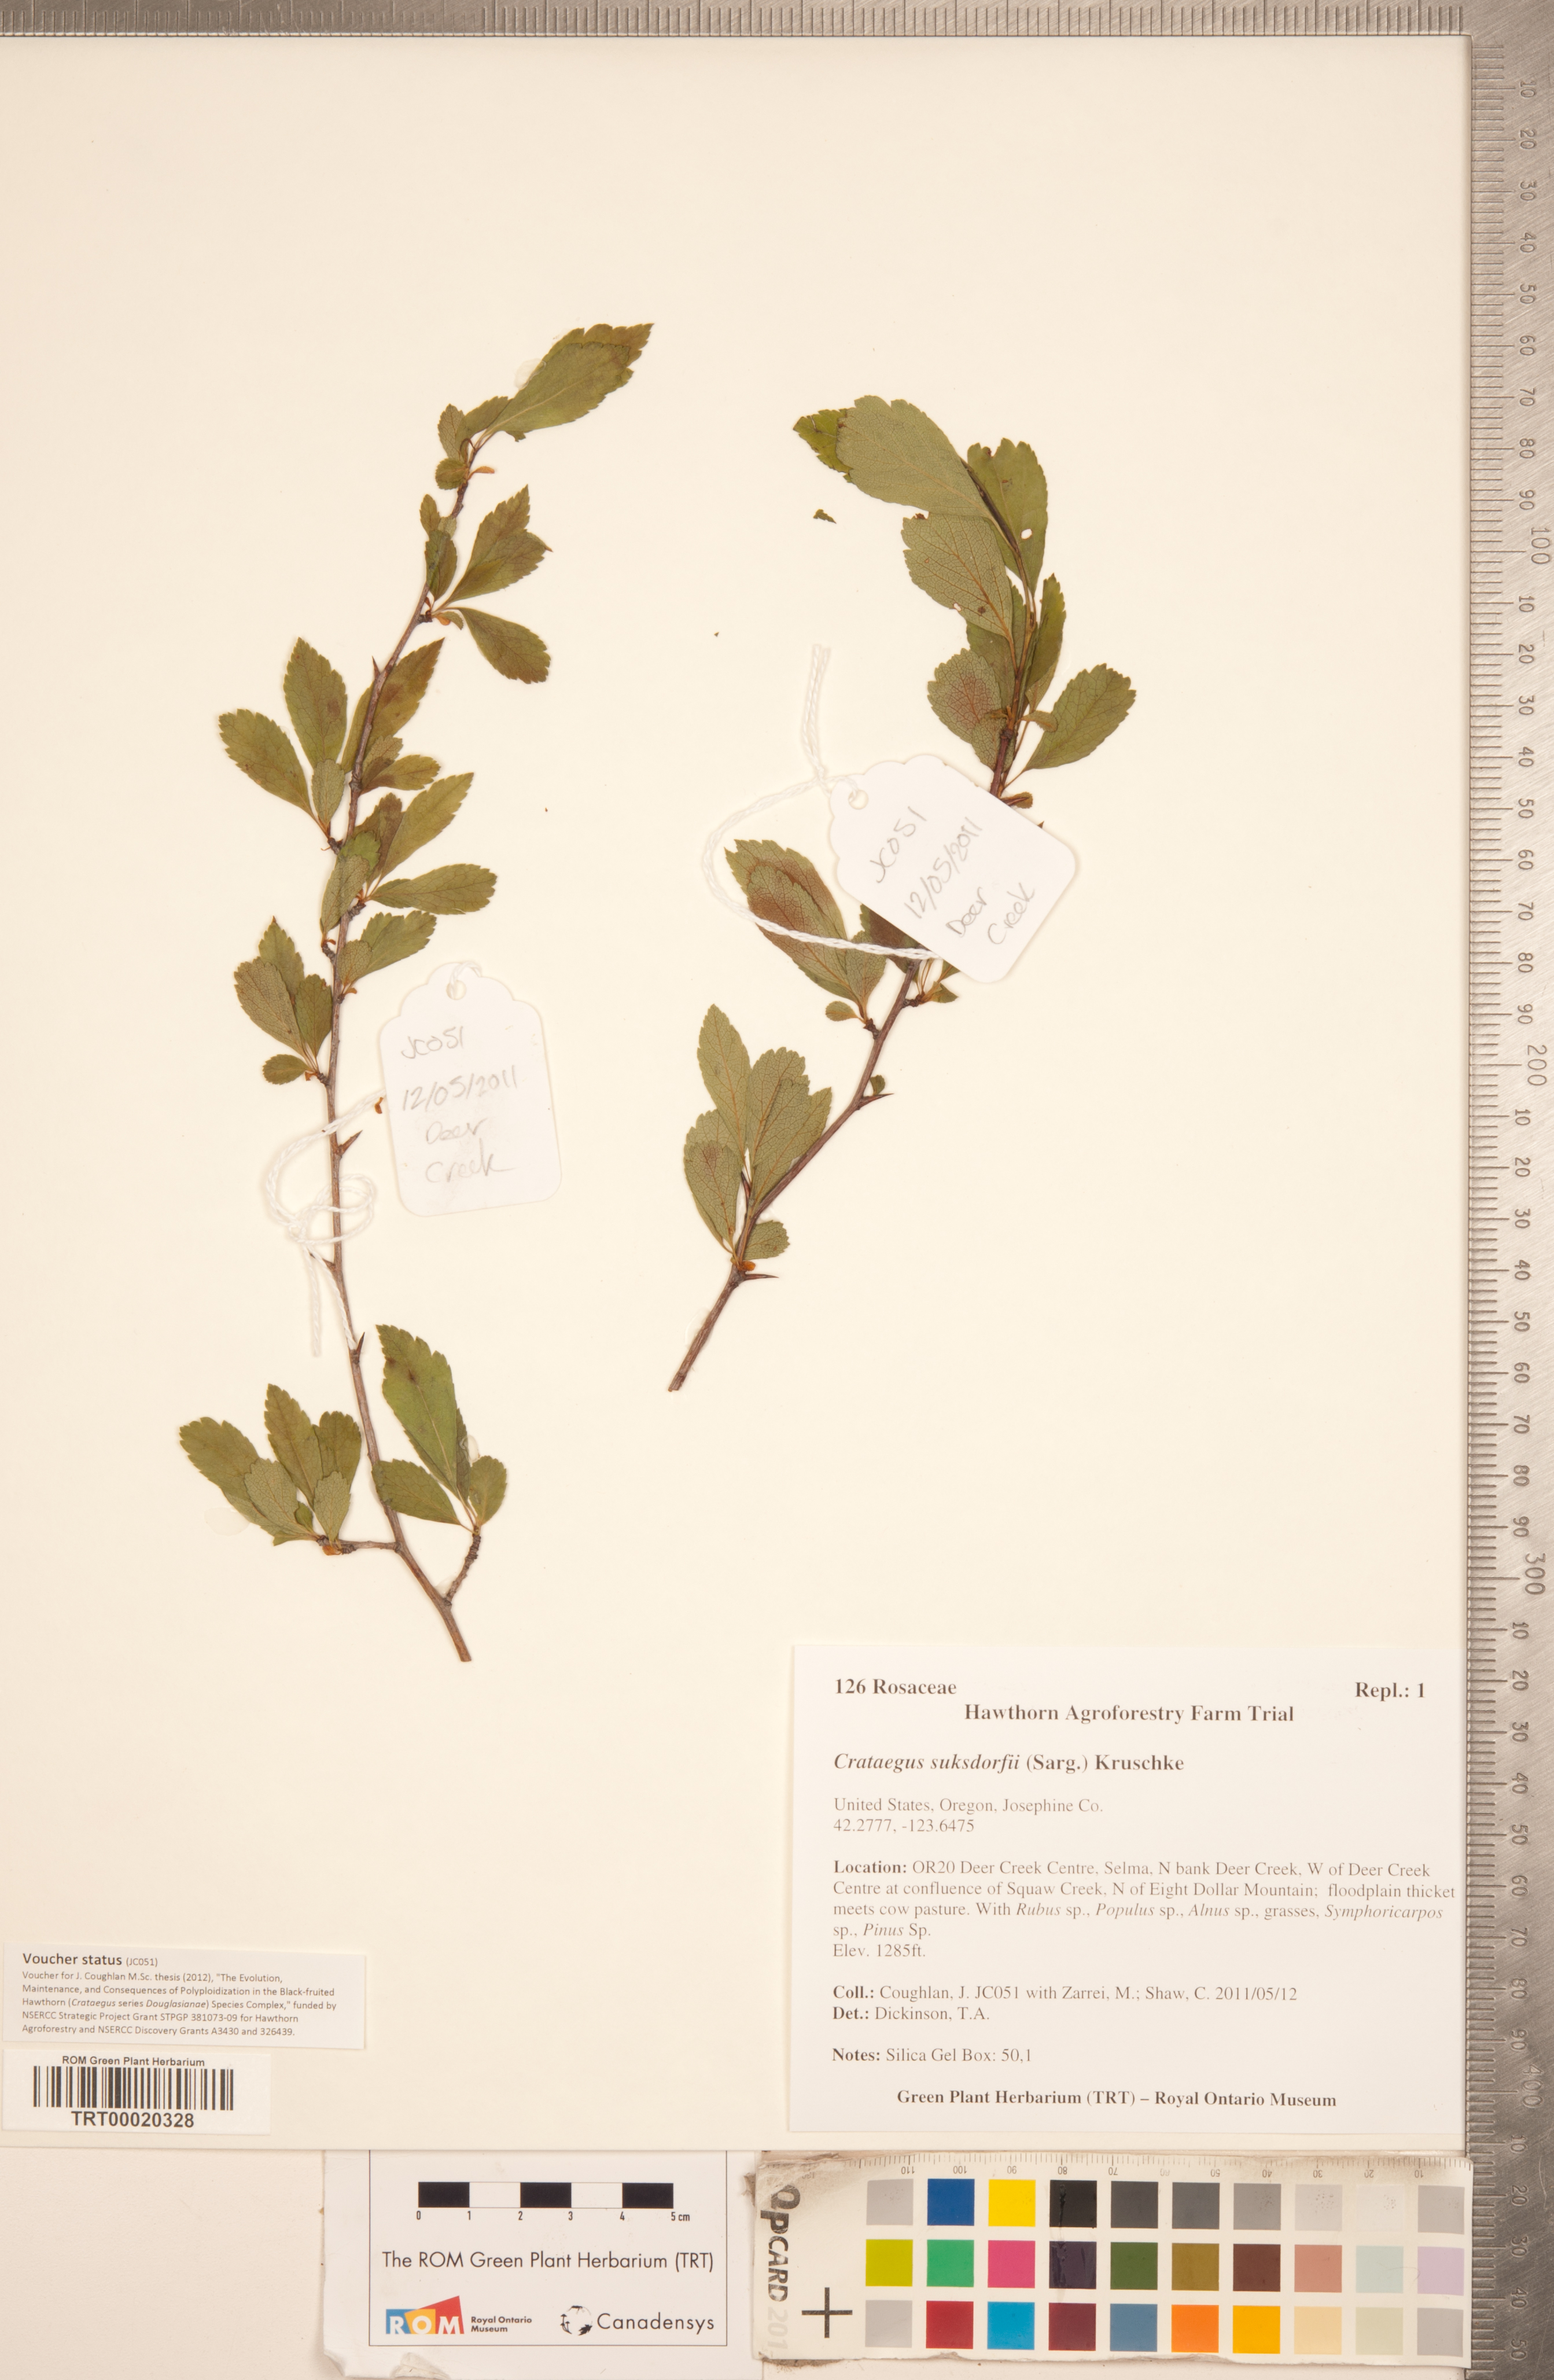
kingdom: Plantae
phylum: Tracheophyta
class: Magnoliopsida
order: Rosales
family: Rosaceae
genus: Crataegus
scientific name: Crataegus gaylussacia
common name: Huckleberry hawthorn
